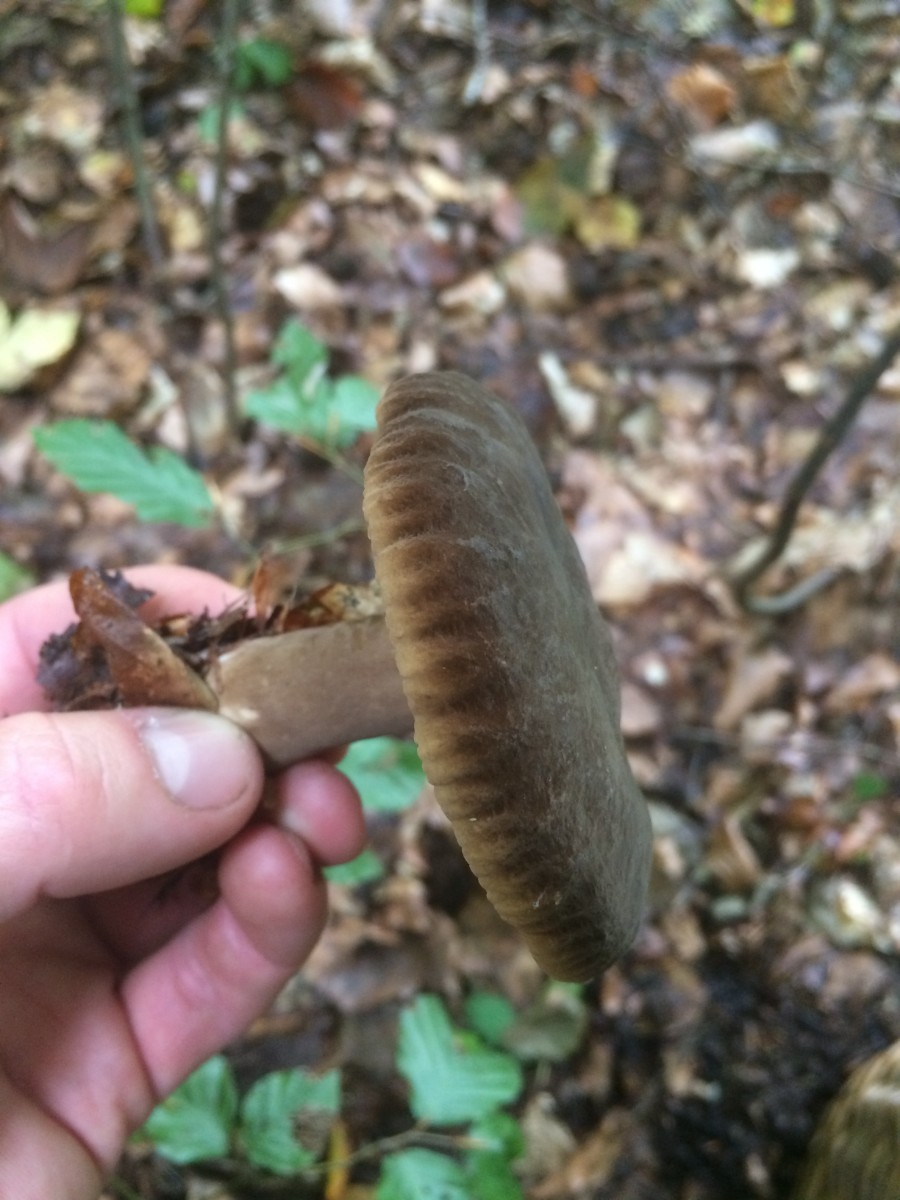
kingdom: Fungi
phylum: Basidiomycota
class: Agaricomycetes
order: Russulales
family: Russulaceae
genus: Lactarius
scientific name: Lactarius romagnesii
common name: fjernbladet mælkehat
